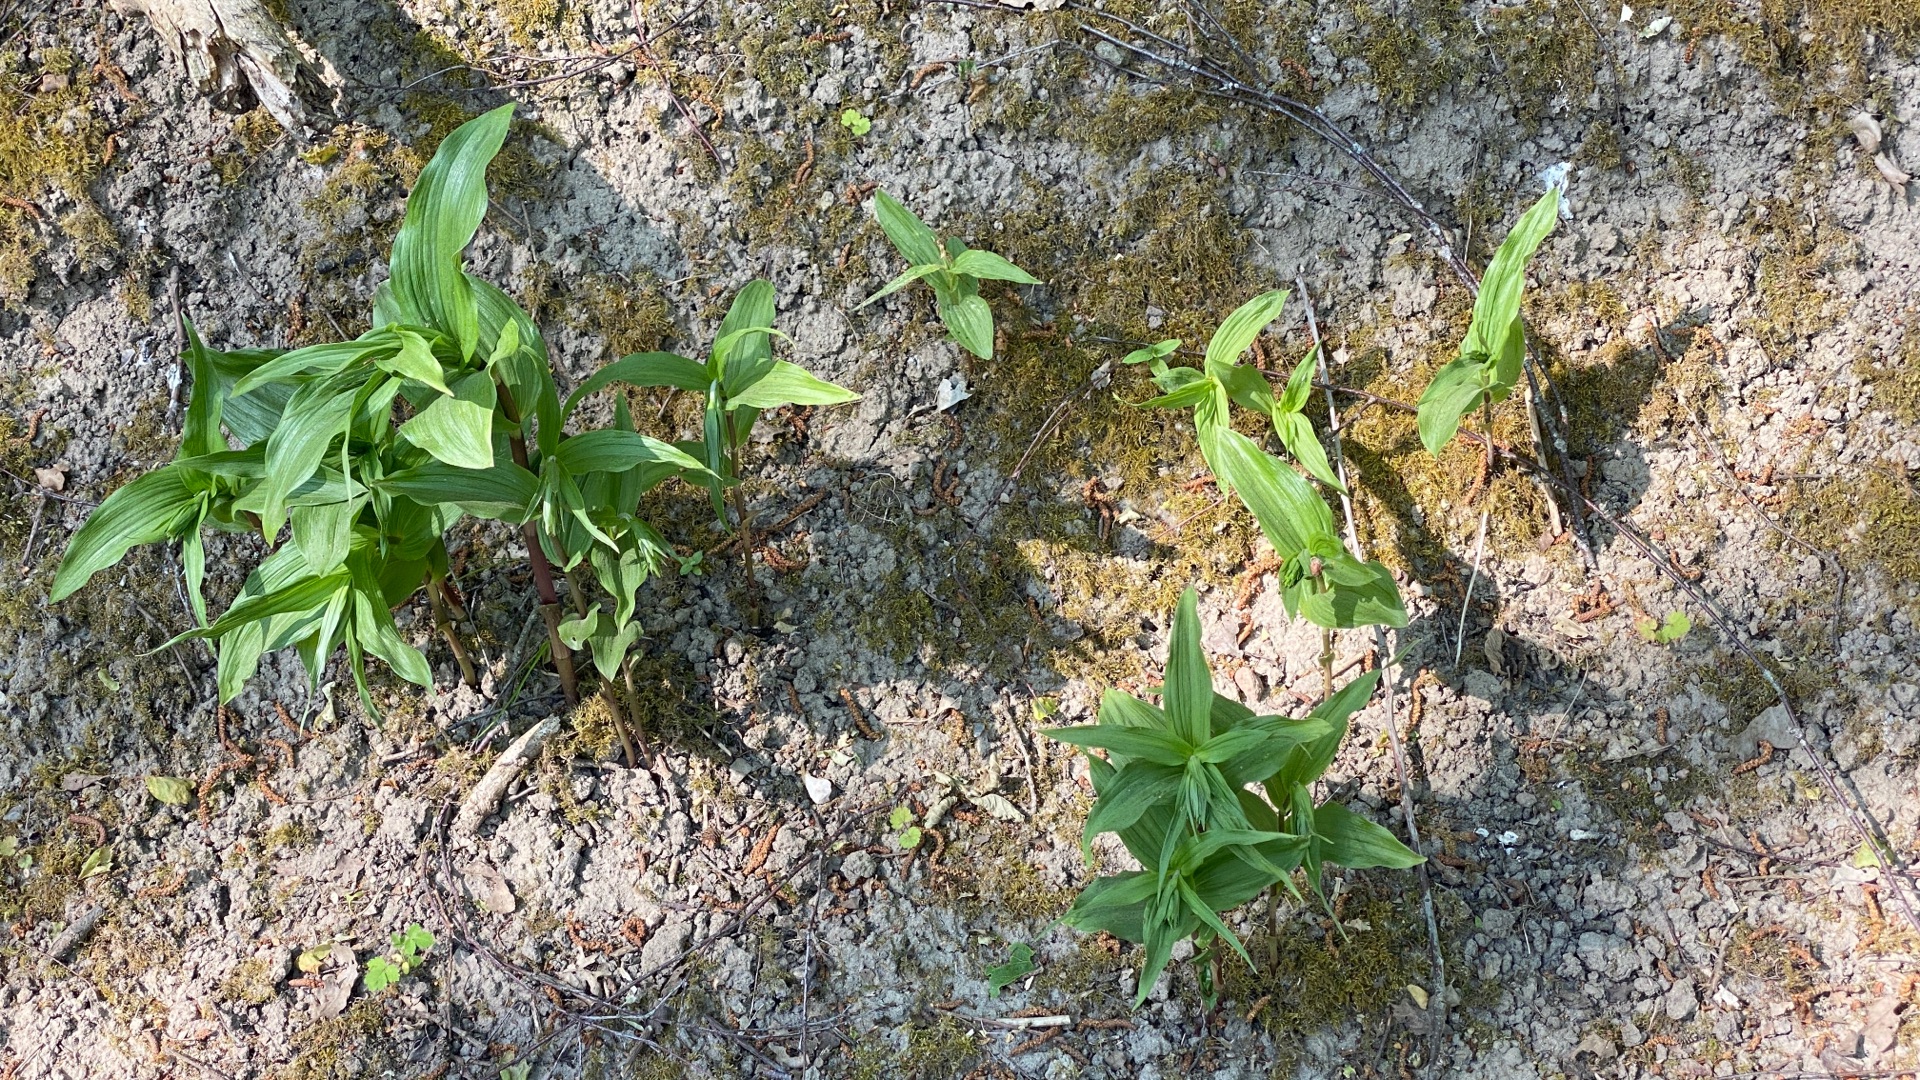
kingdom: Plantae
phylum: Tracheophyta
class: Liliopsida
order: Asparagales
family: Orchidaceae
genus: Epipactis
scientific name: Epipactis helleborine
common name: Skov-hullæbe
